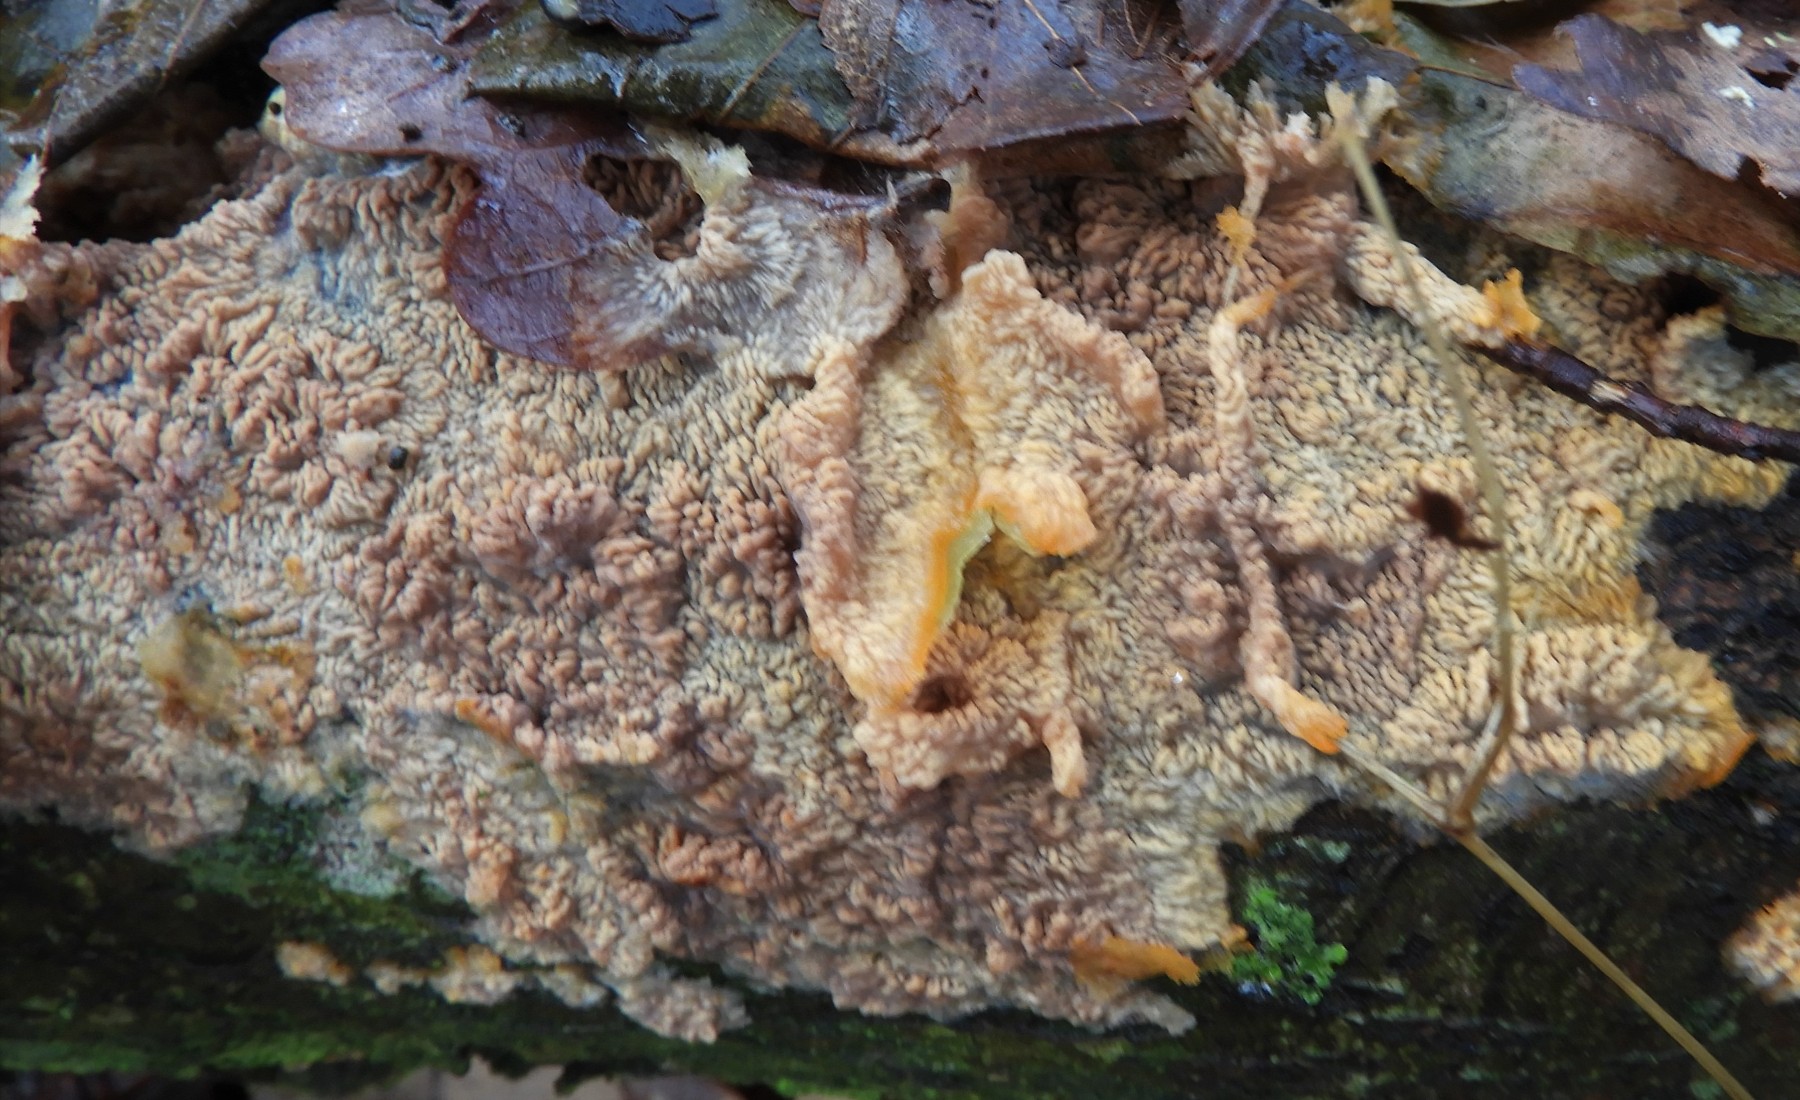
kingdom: Fungi
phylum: Basidiomycota
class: Agaricomycetes
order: Polyporales
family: Meruliaceae
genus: Phlebia
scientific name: Phlebia radiata
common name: stråle-åresvamp
